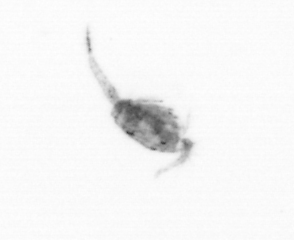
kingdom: Animalia
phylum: Arthropoda
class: Copepoda
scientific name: Copepoda
